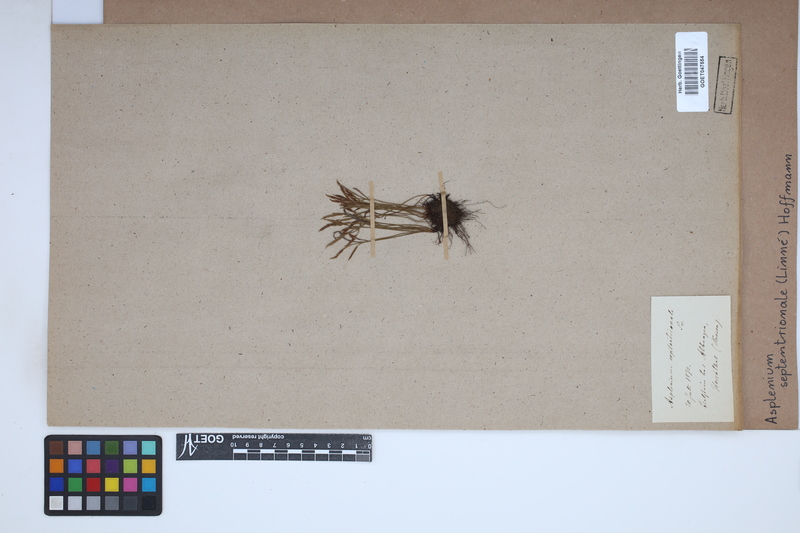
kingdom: Plantae
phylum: Tracheophyta
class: Polypodiopsida
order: Polypodiales
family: Aspleniaceae
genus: Asplenium
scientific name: Asplenium septentrionale
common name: Forked spleenwort
